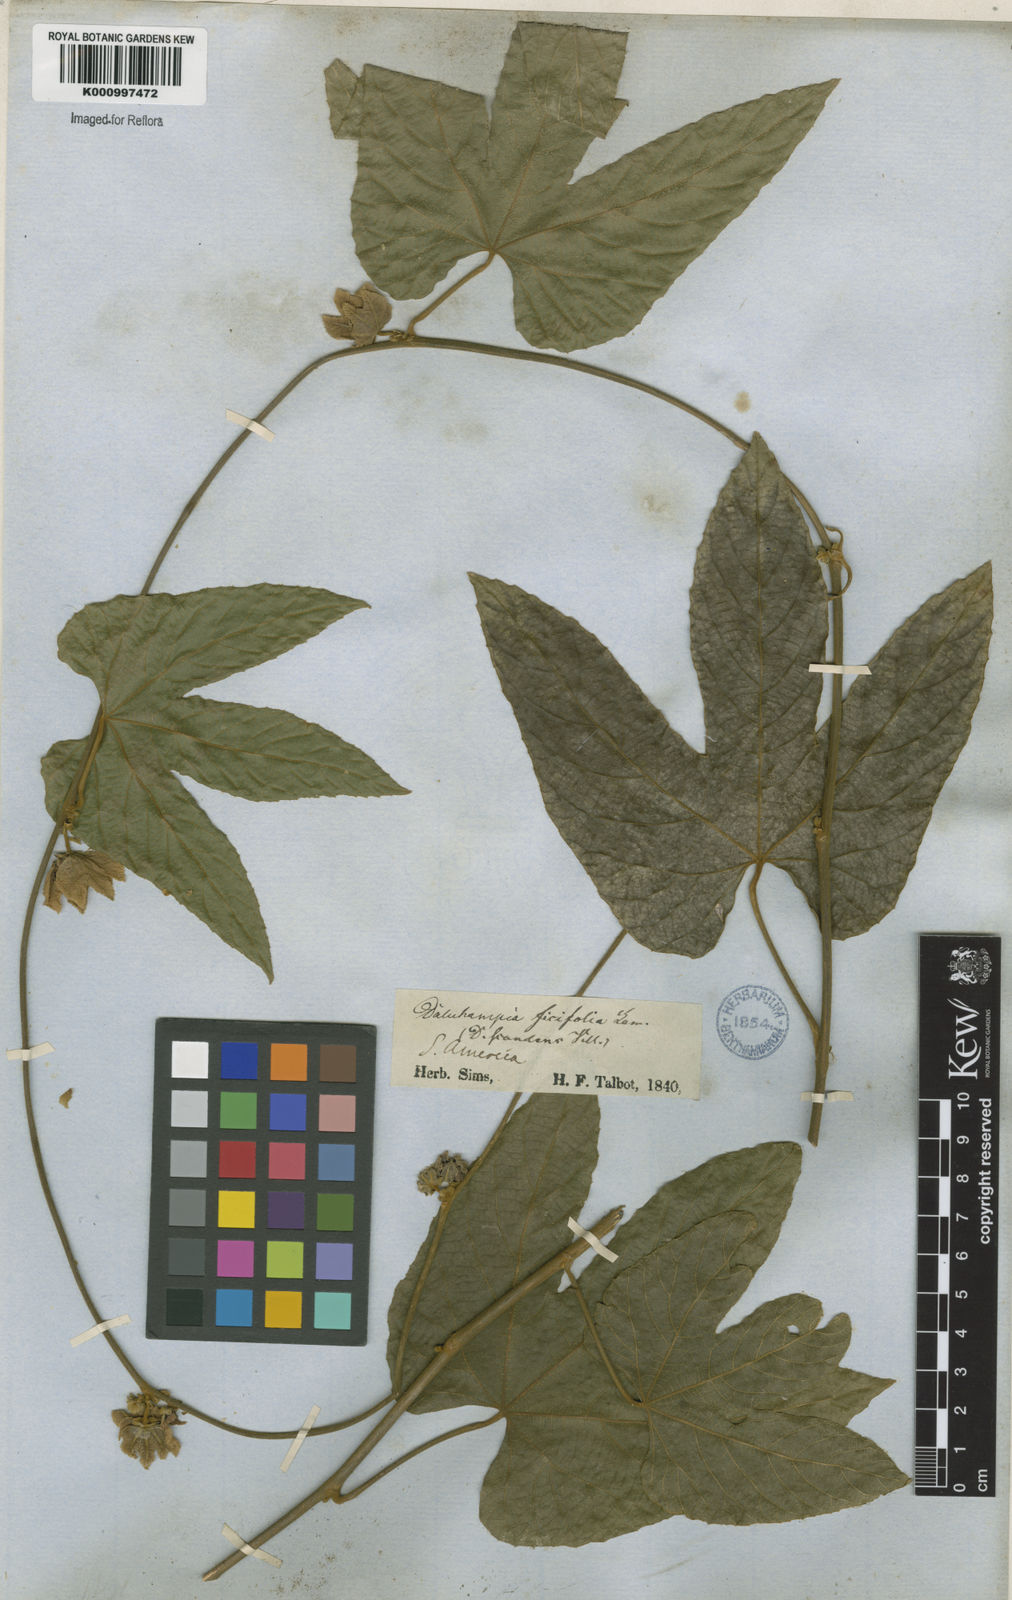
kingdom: Plantae
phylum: Tracheophyta
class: Magnoliopsida
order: Malpighiales
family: Euphorbiaceae
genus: Dalechampia
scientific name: Dalechampia ficifolia
